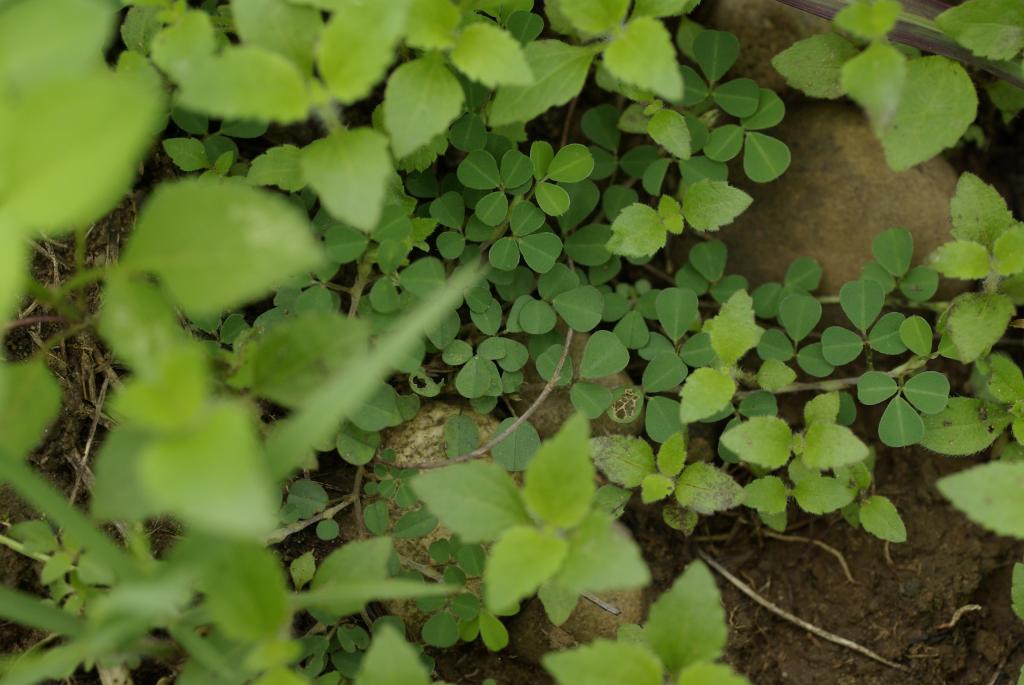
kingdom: Plantae
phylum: Tracheophyta
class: Magnoliopsida
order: Fabales
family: Fabaceae
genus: Grona
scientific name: Grona triflora
